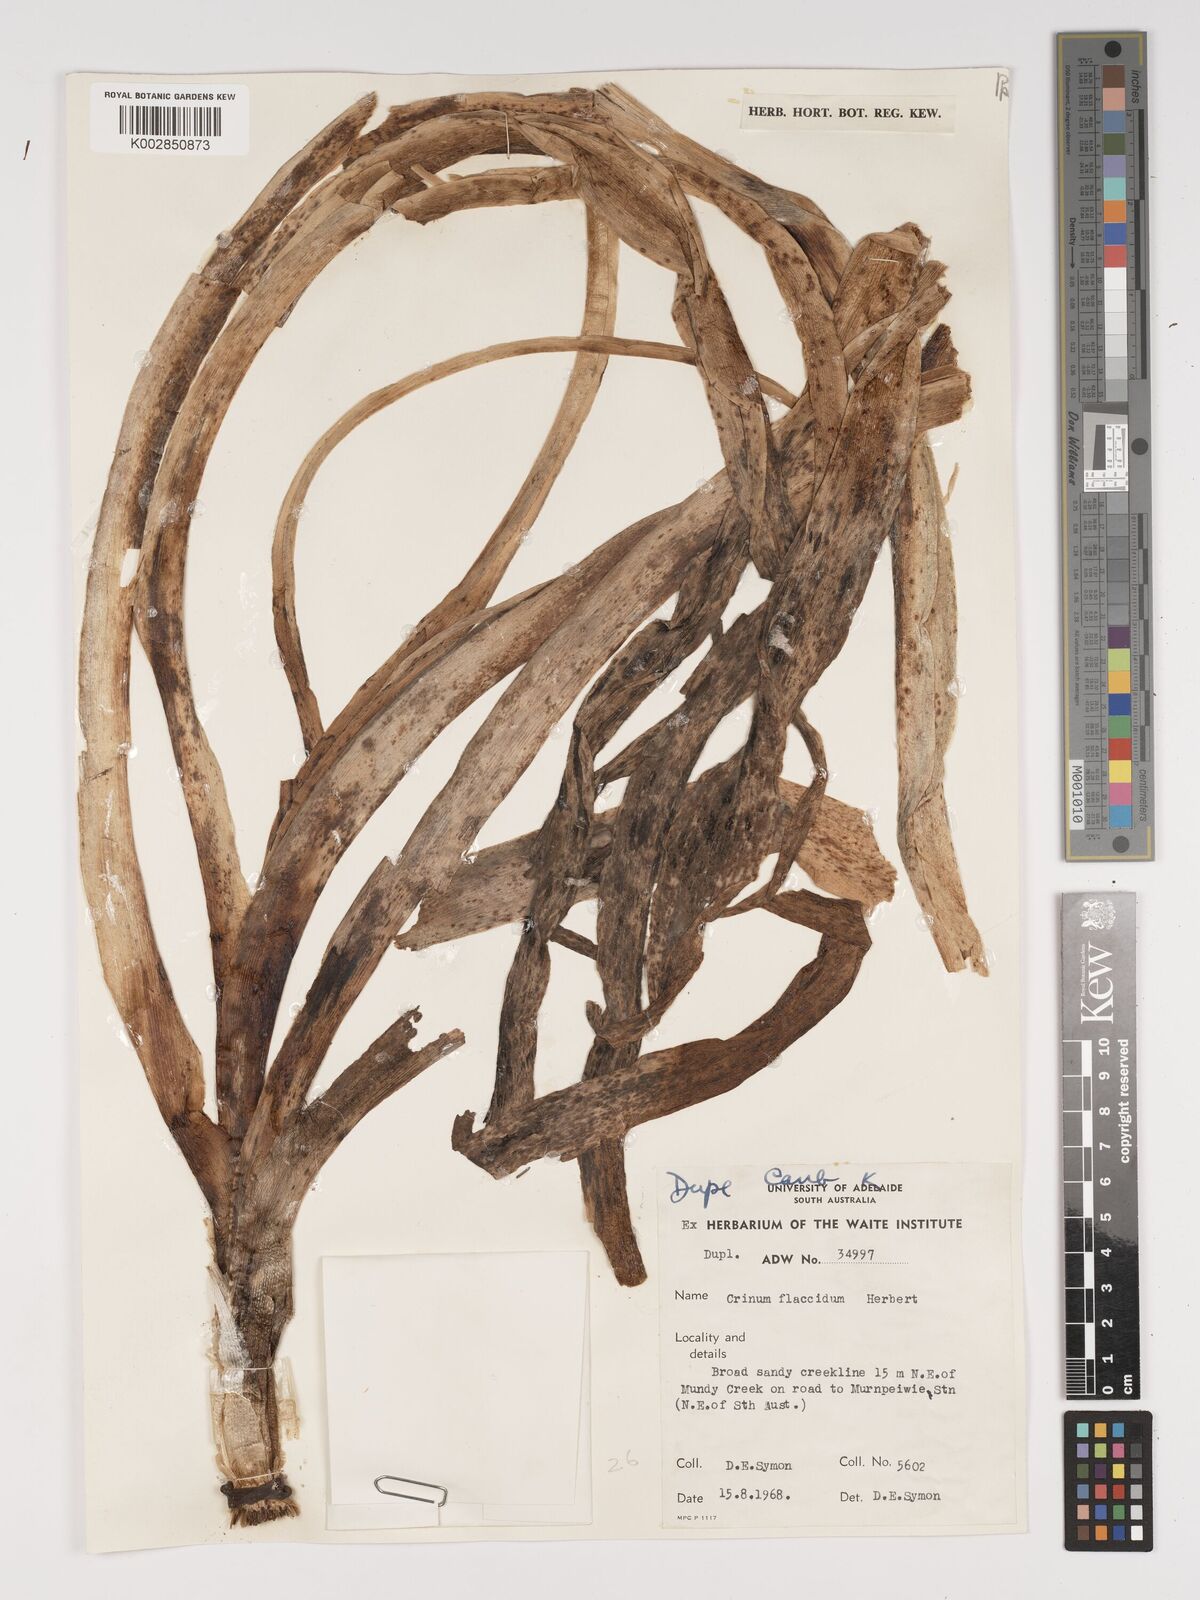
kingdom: Plantae
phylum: Tracheophyta
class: Liliopsida
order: Asparagales
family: Amaryllidaceae
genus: Crinum
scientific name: Crinum flaccidum
